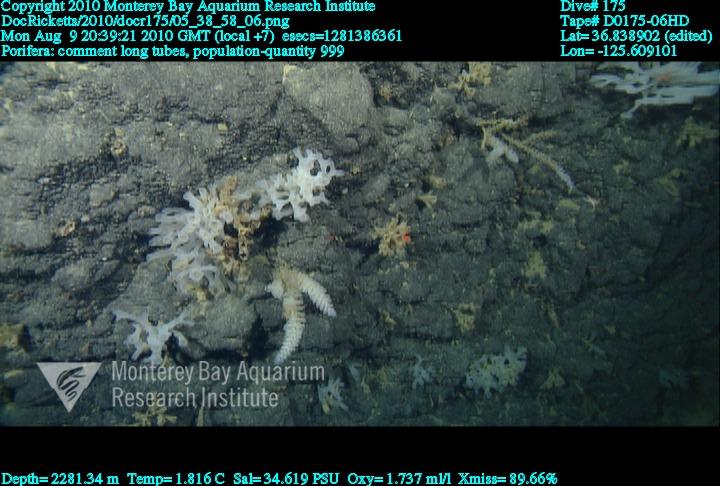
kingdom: Animalia
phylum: Porifera
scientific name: Porifera
